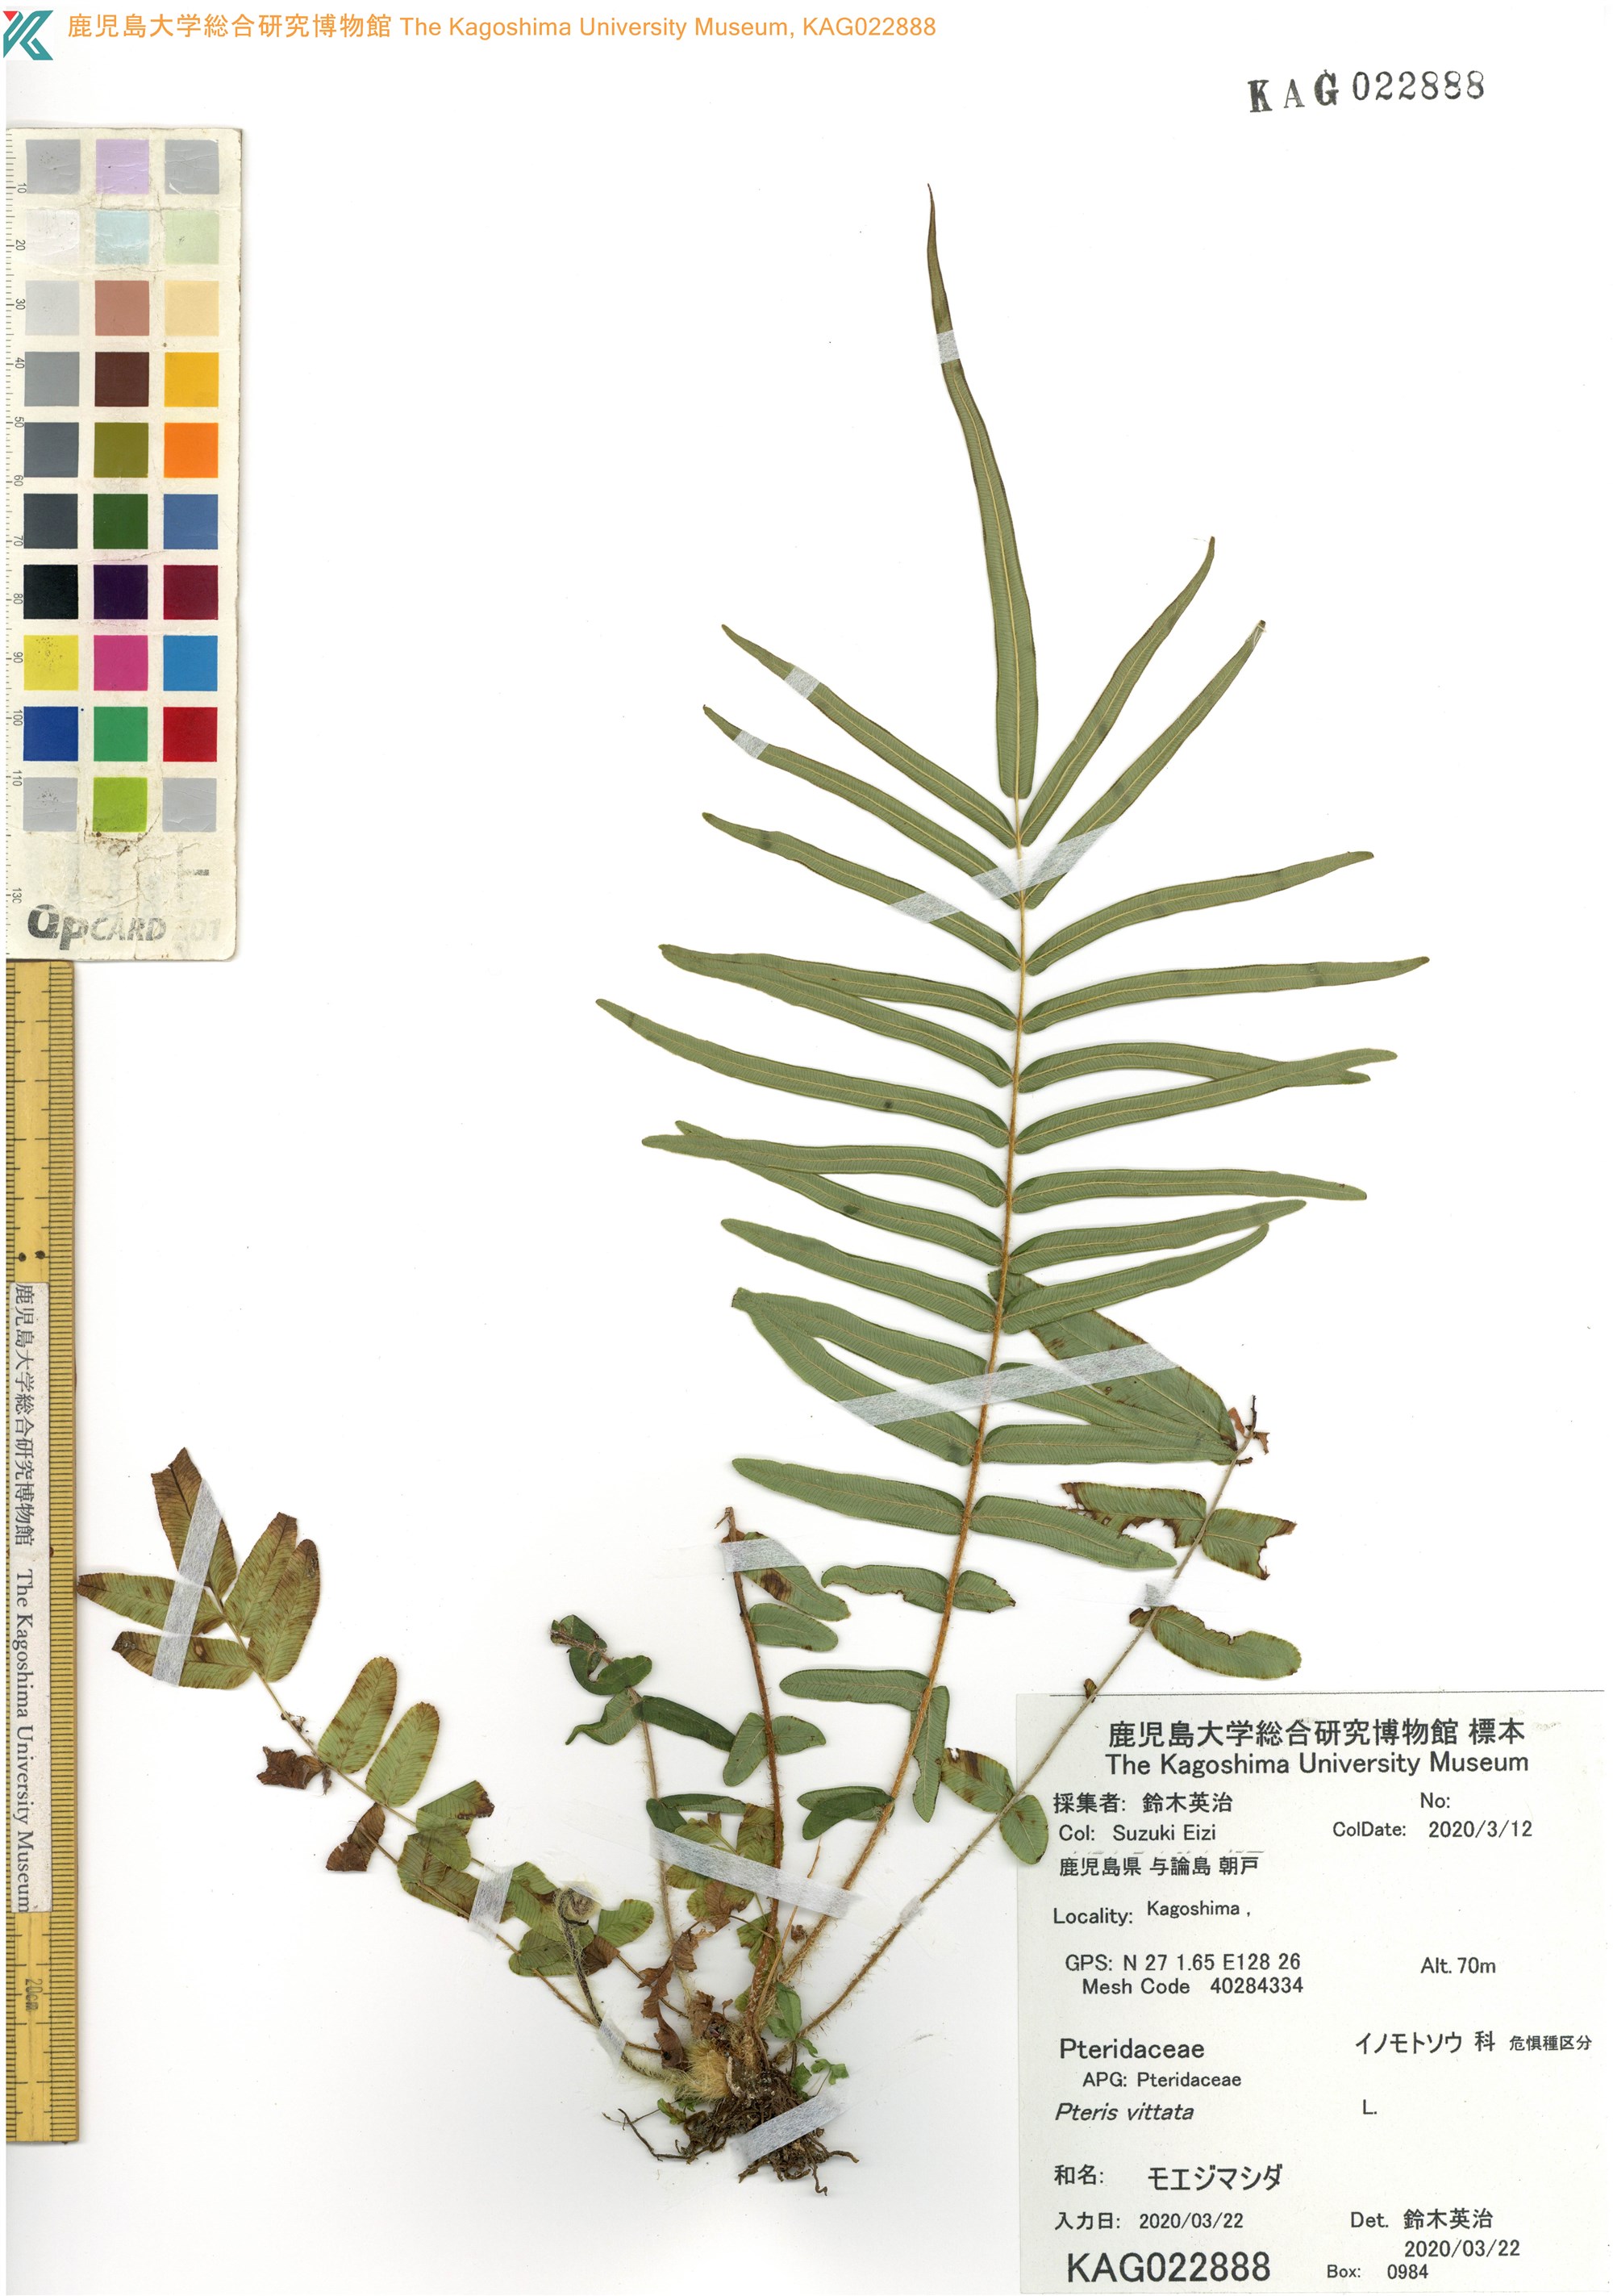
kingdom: Plantae
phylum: Tracheophyta
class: Polypodiopsida
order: Polypodiales
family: Pteridaceae
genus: Pteris
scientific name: Pteris vittata
